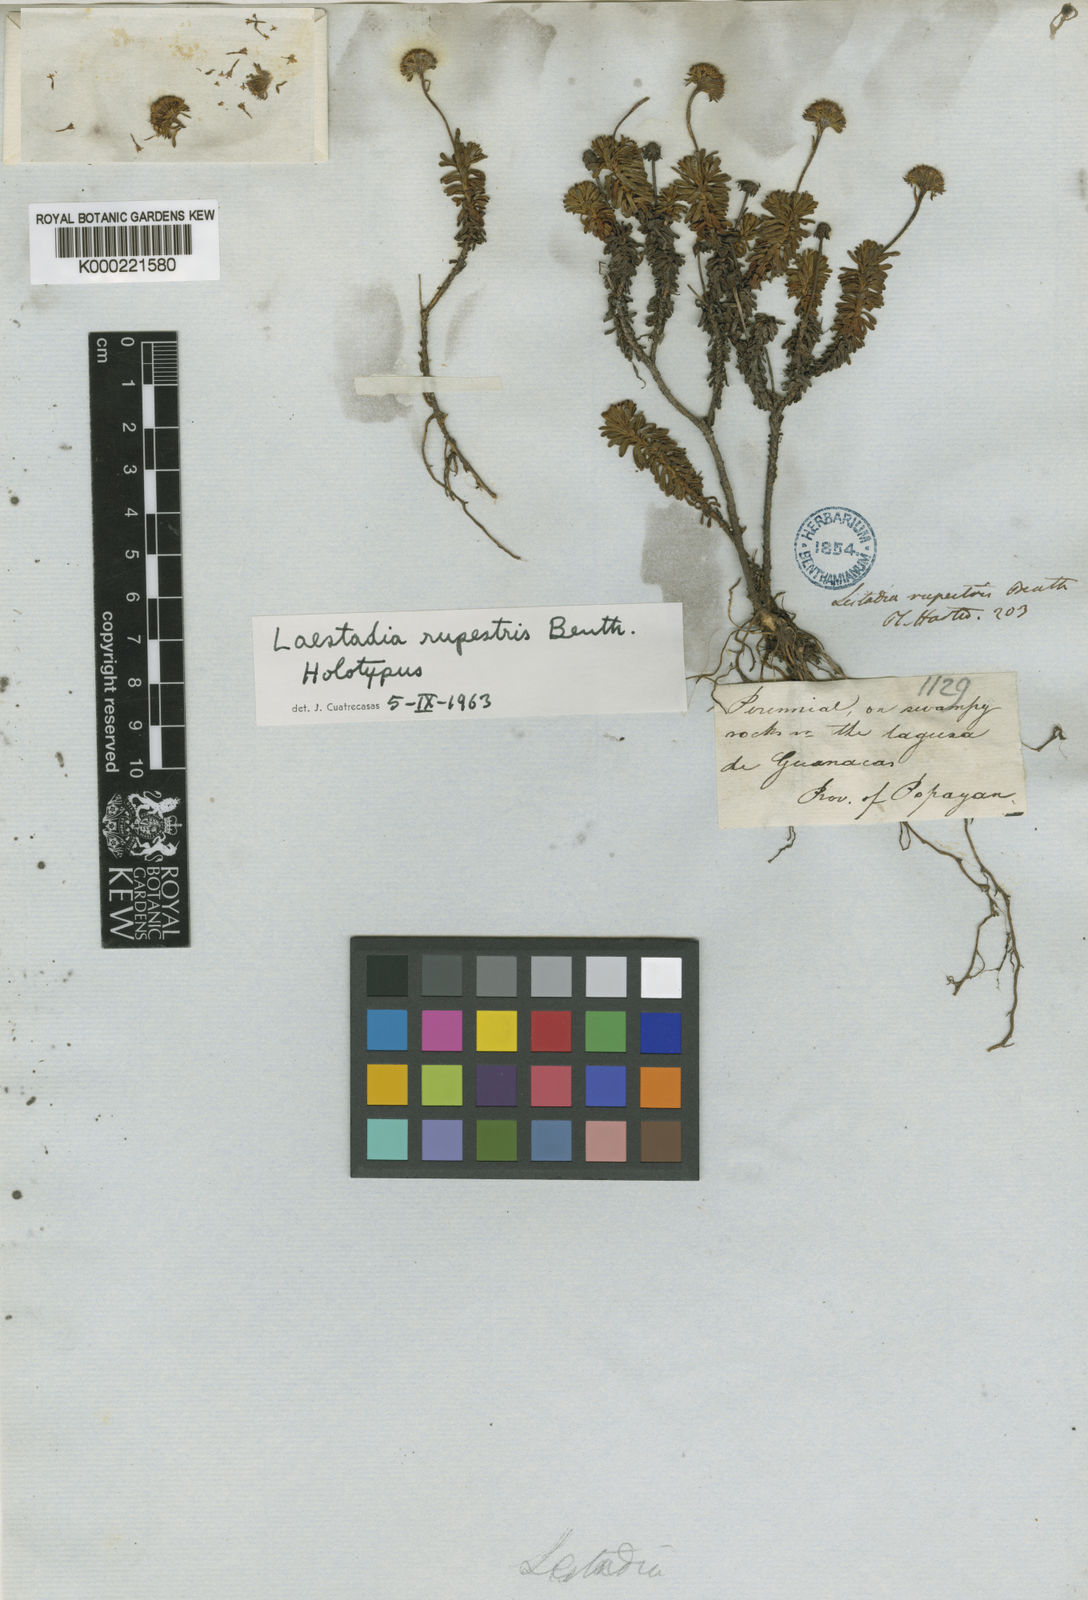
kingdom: Plantae
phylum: Tracheophyta
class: Magnoliopsida
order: Asterales
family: Asteraceae
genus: Laestadia
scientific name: Laestadia rupestris
